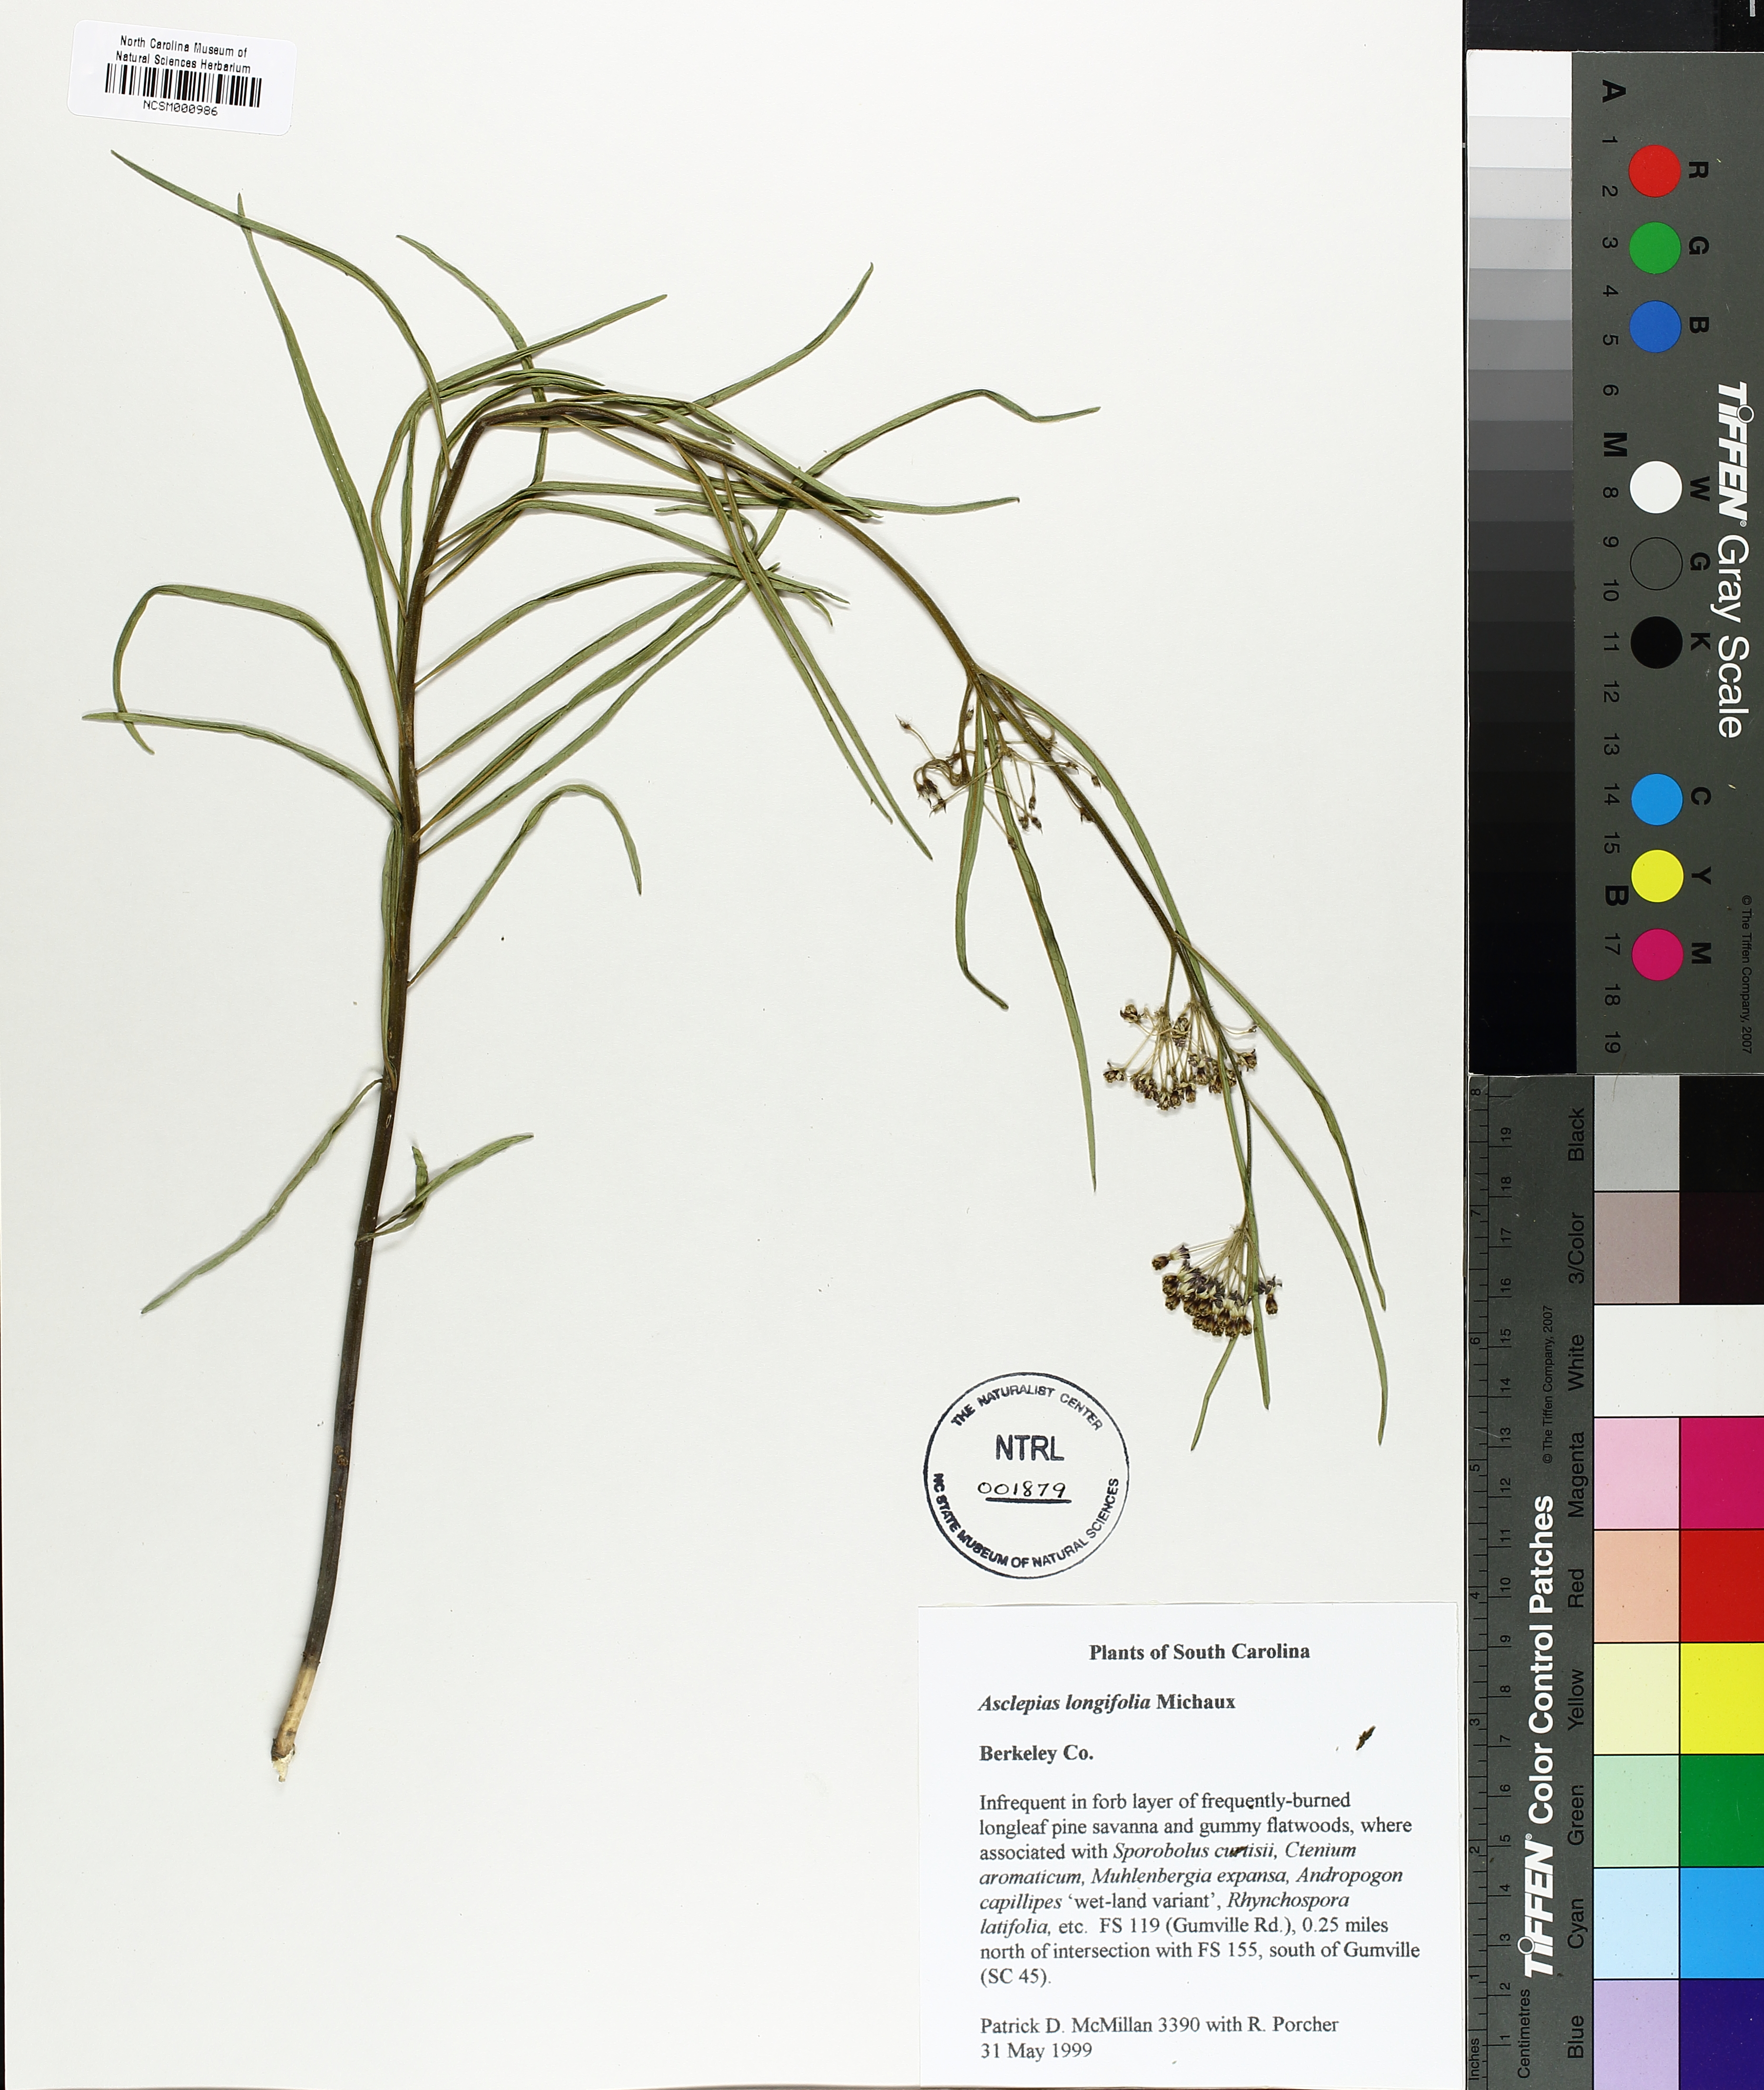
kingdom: Plantae
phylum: Tracheophyta
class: Magnoliopsida
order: Gentianales
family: Apocynaceae
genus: Asclepias
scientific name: Asclepias longifolia
